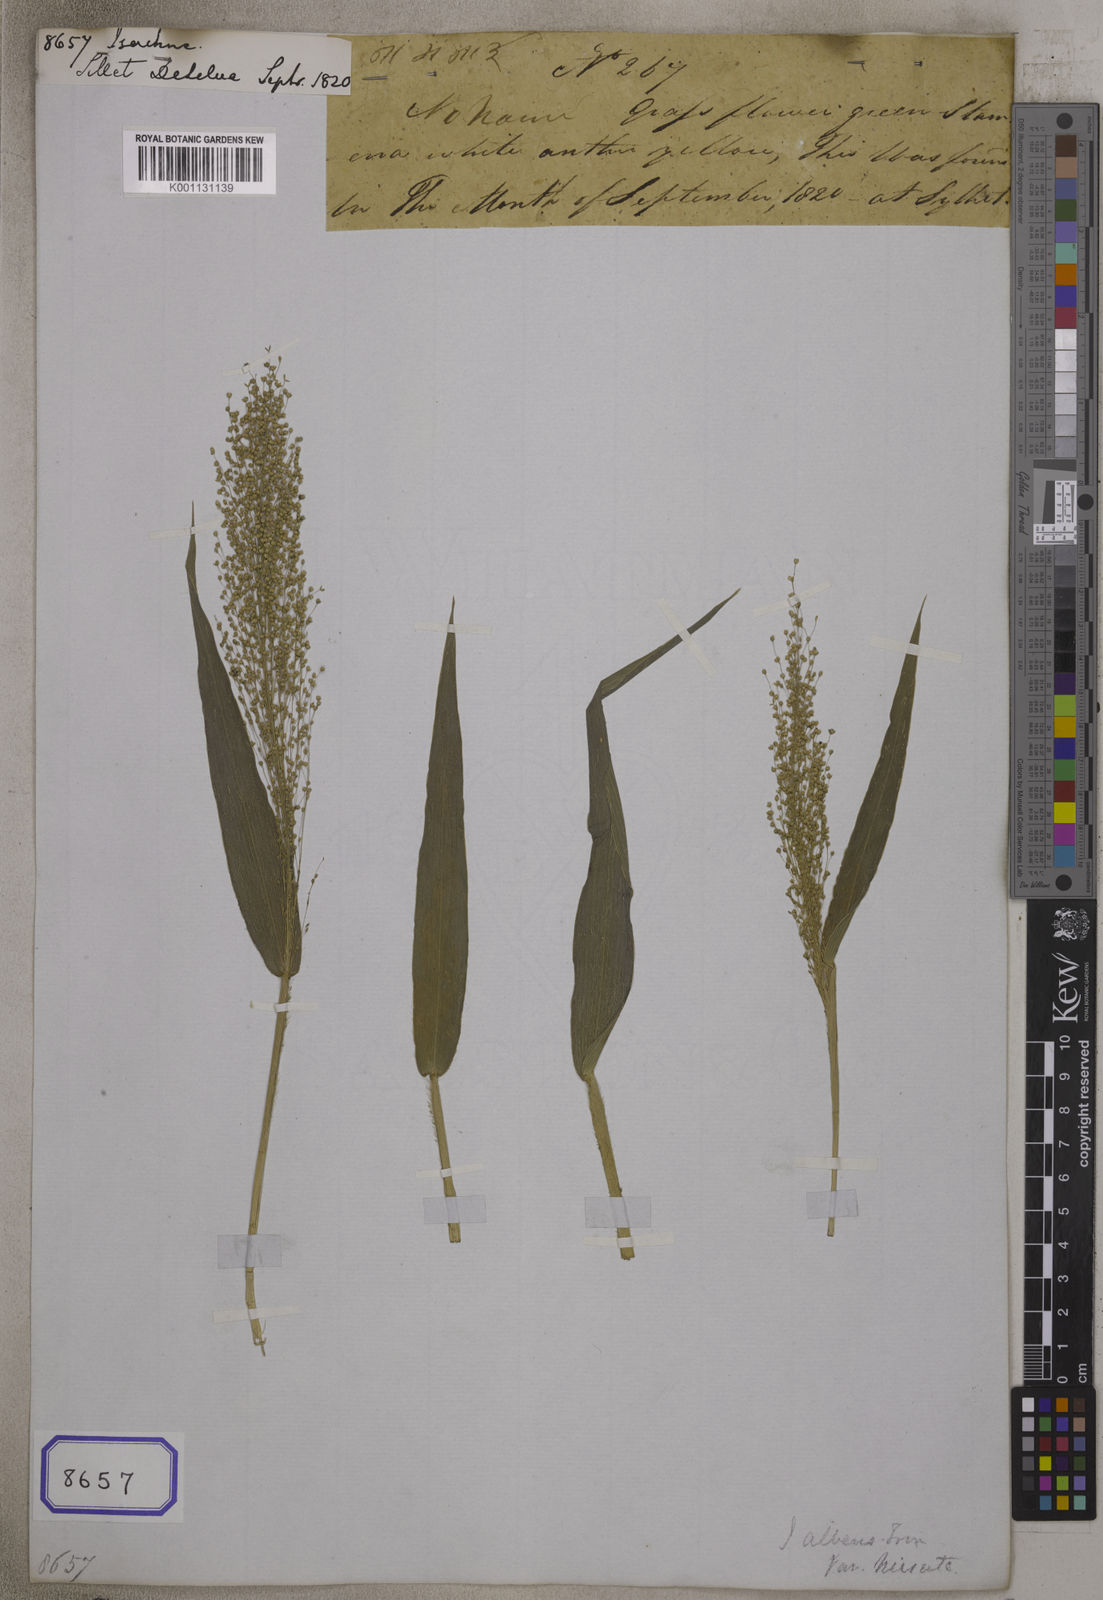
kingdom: Plantae
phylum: Tracheophyta
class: Liliopsida
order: Poales
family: Poaceae
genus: Isachne
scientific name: Isachne
